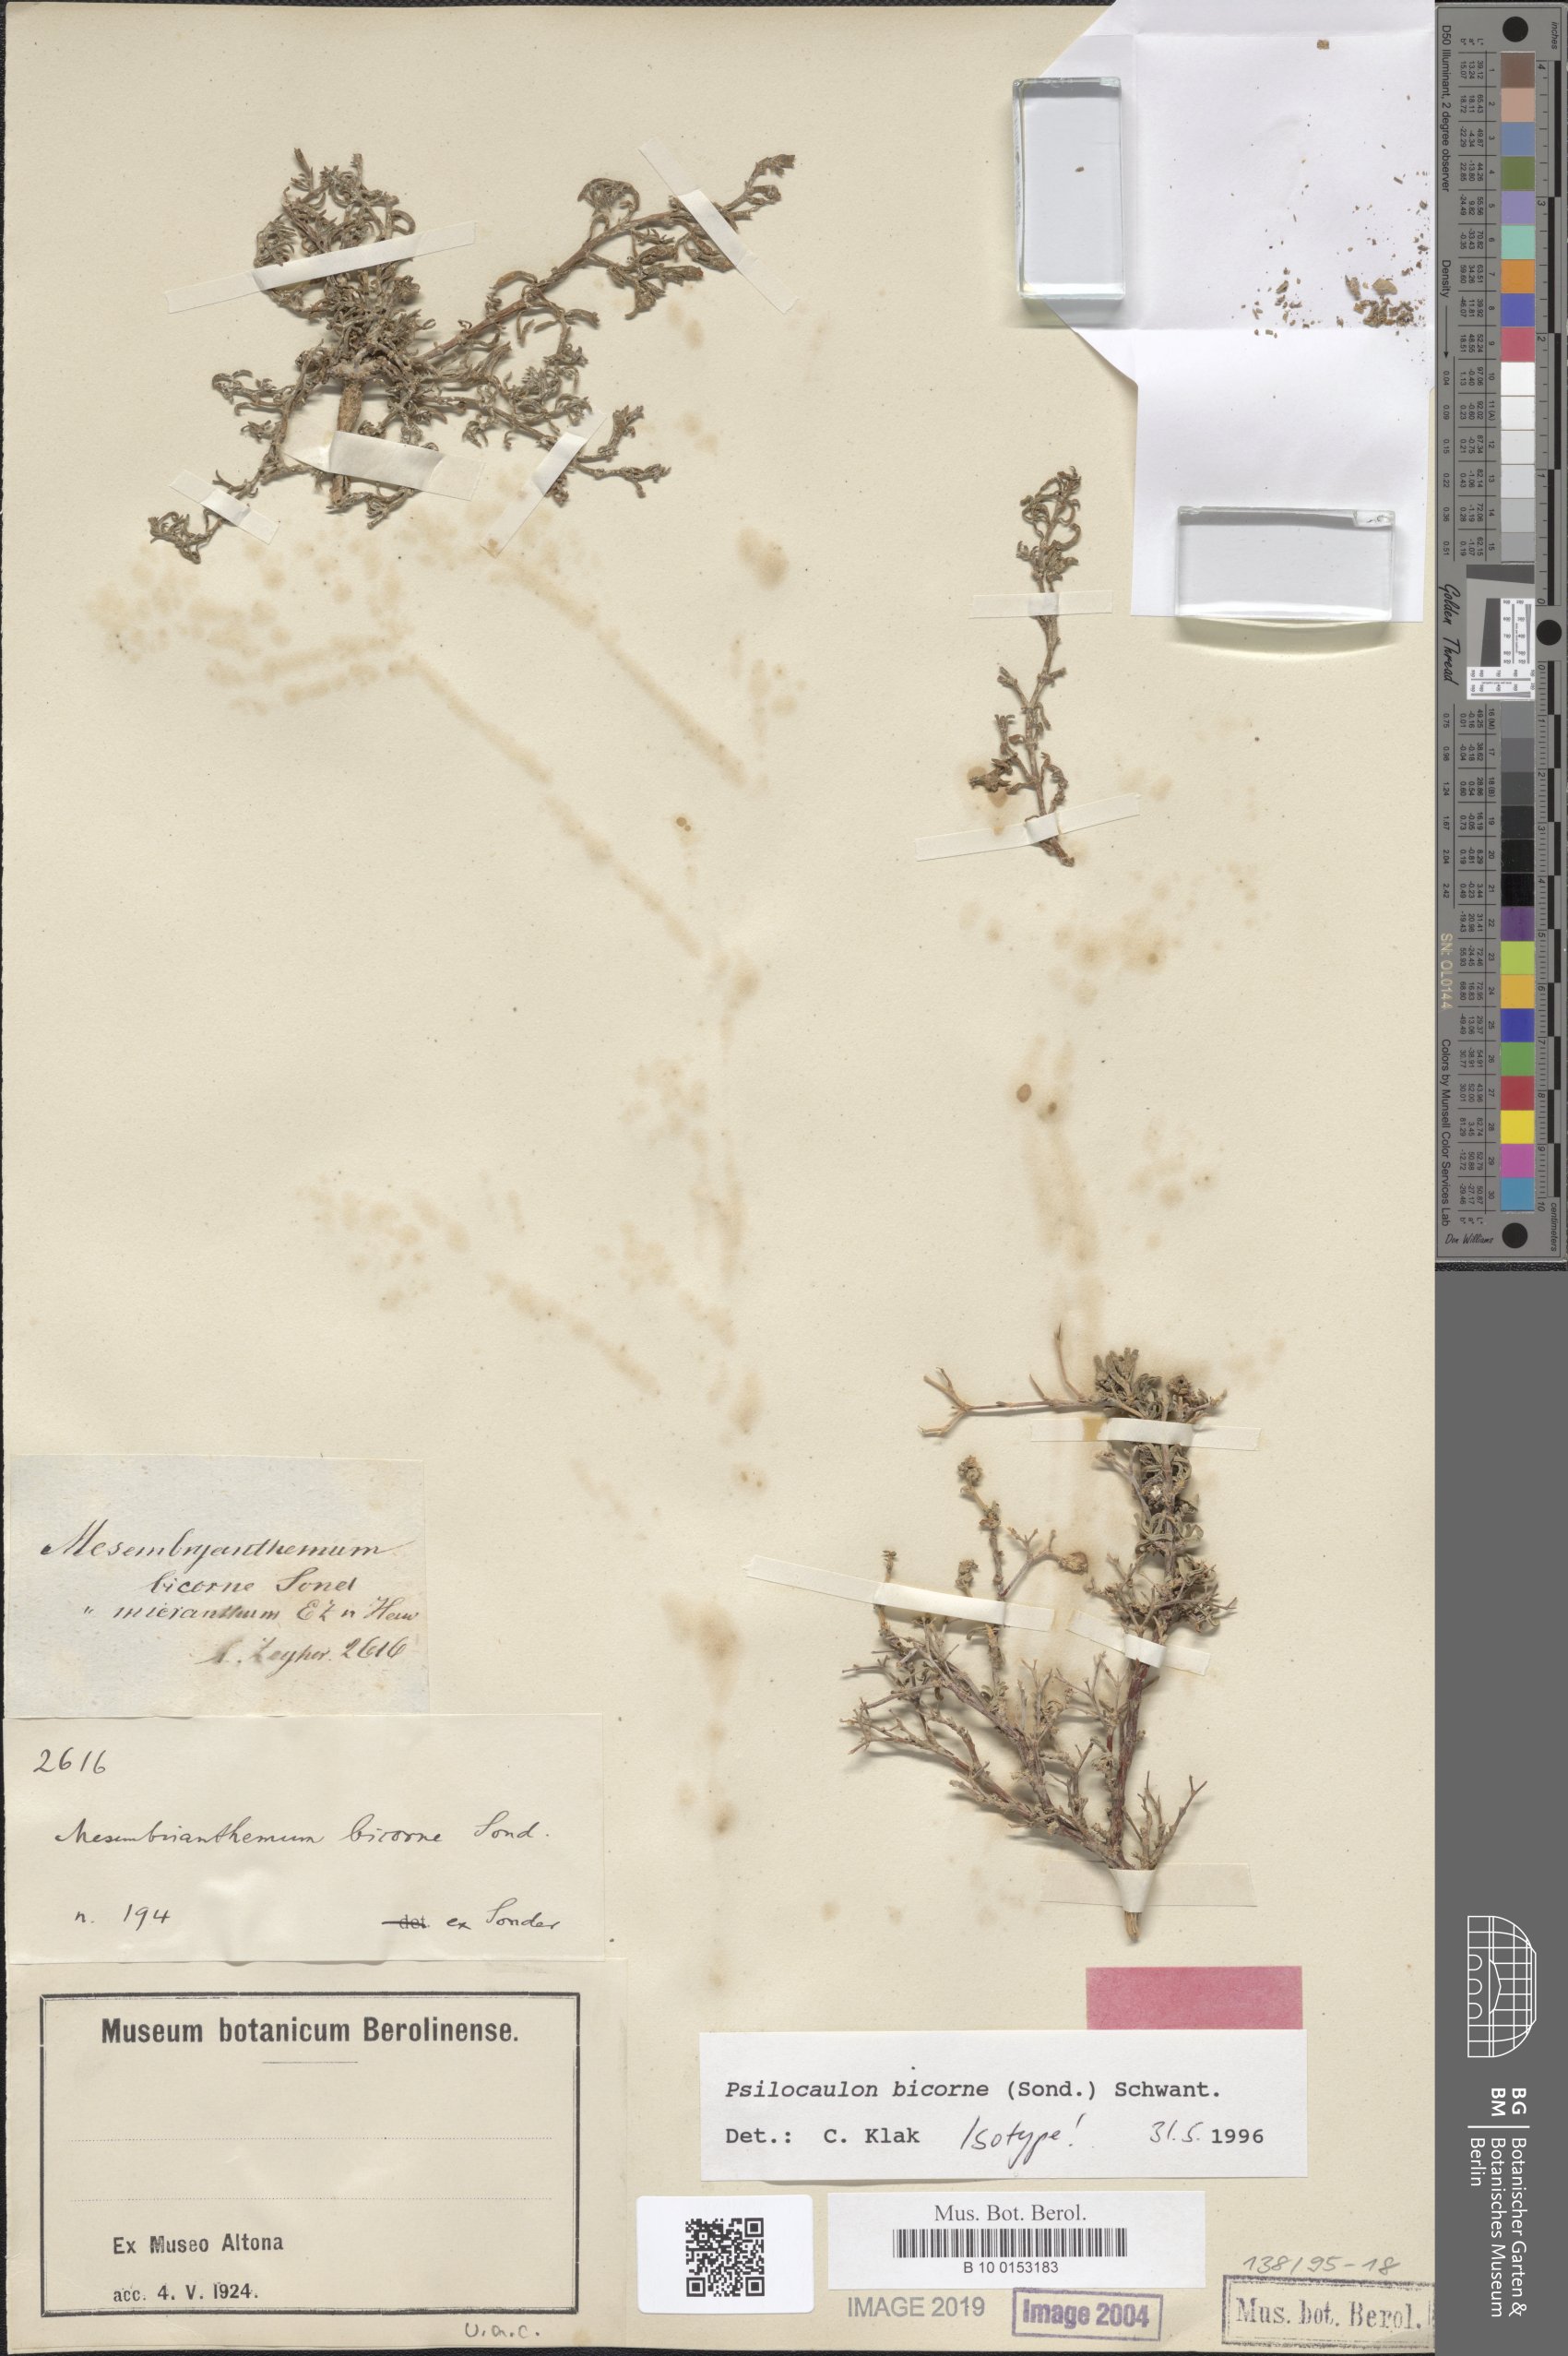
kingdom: Plantae
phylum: Tracheophyta
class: Magnoliopsida
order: Caryophyllales
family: Aizoaceae
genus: Mesembryanthemum
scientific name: Mesembryanthemum bicorne
